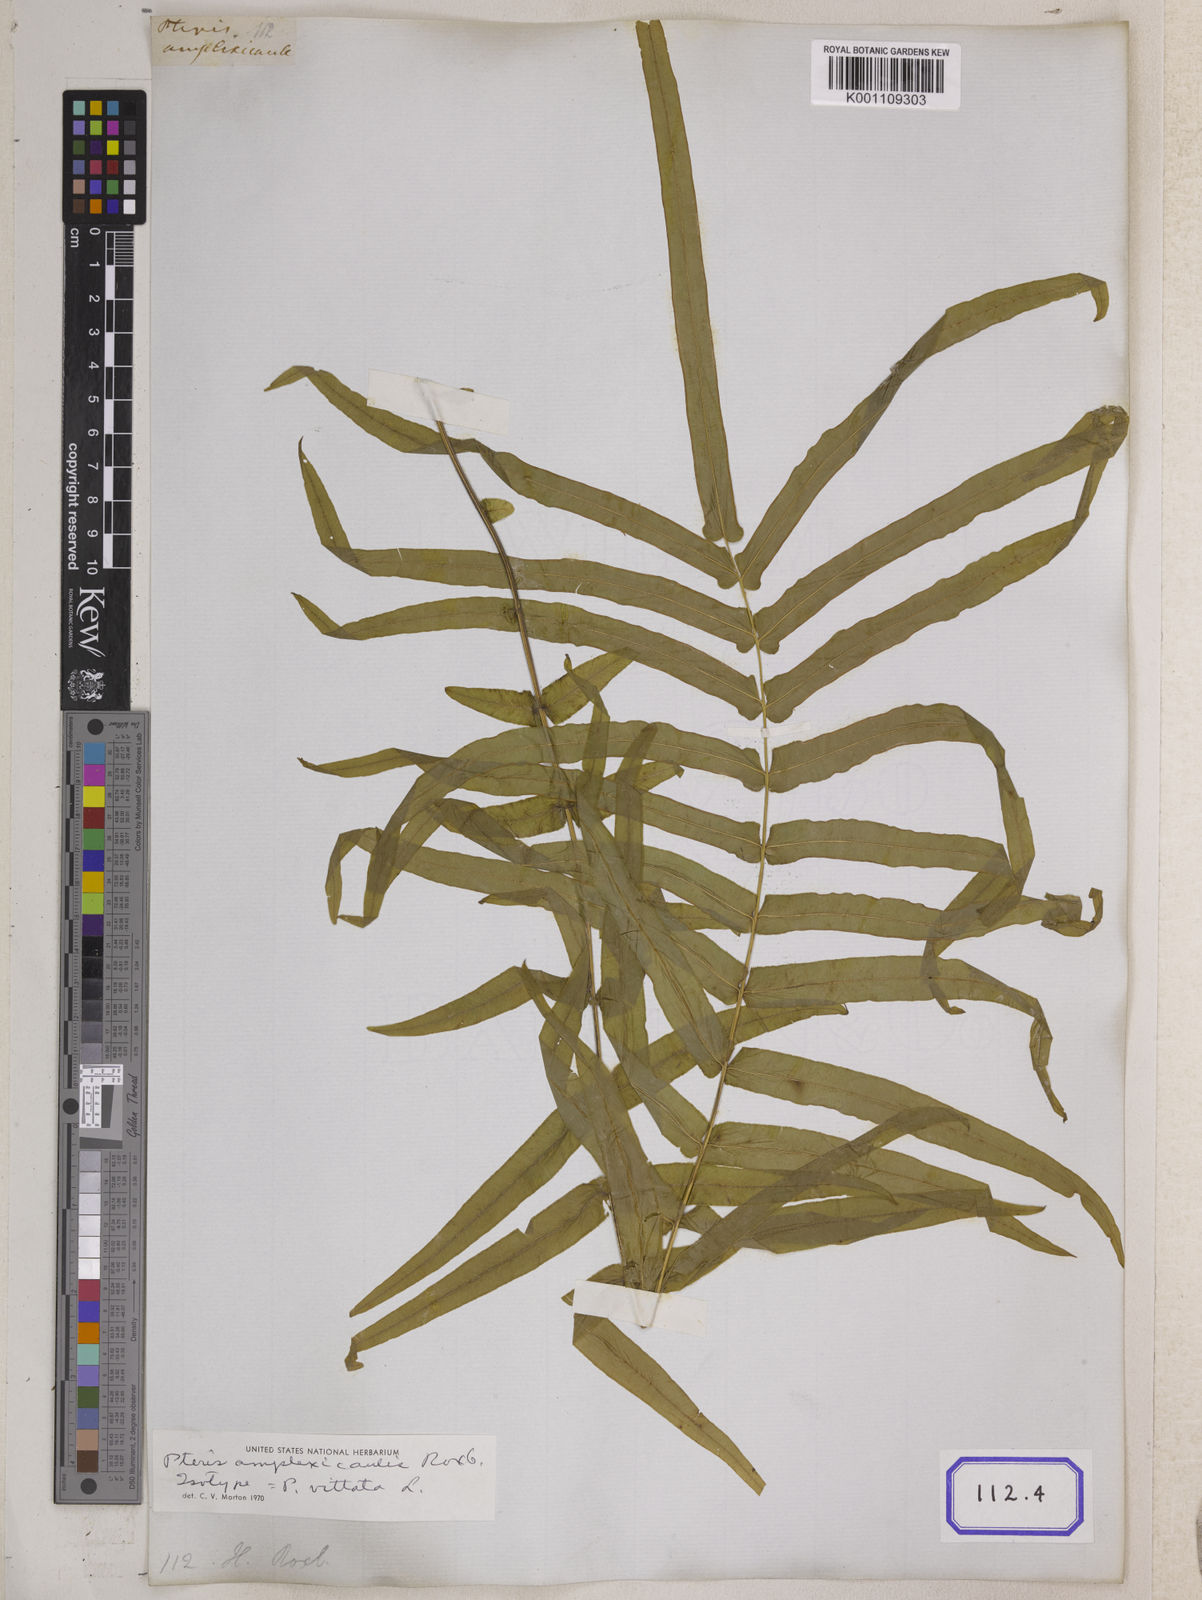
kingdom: Plantae
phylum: Tracheophyta
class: Polypodiopsida
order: Polypodiales
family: Pteridaceae
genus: Pteris
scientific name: Pteris vittata
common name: Ladder brake
